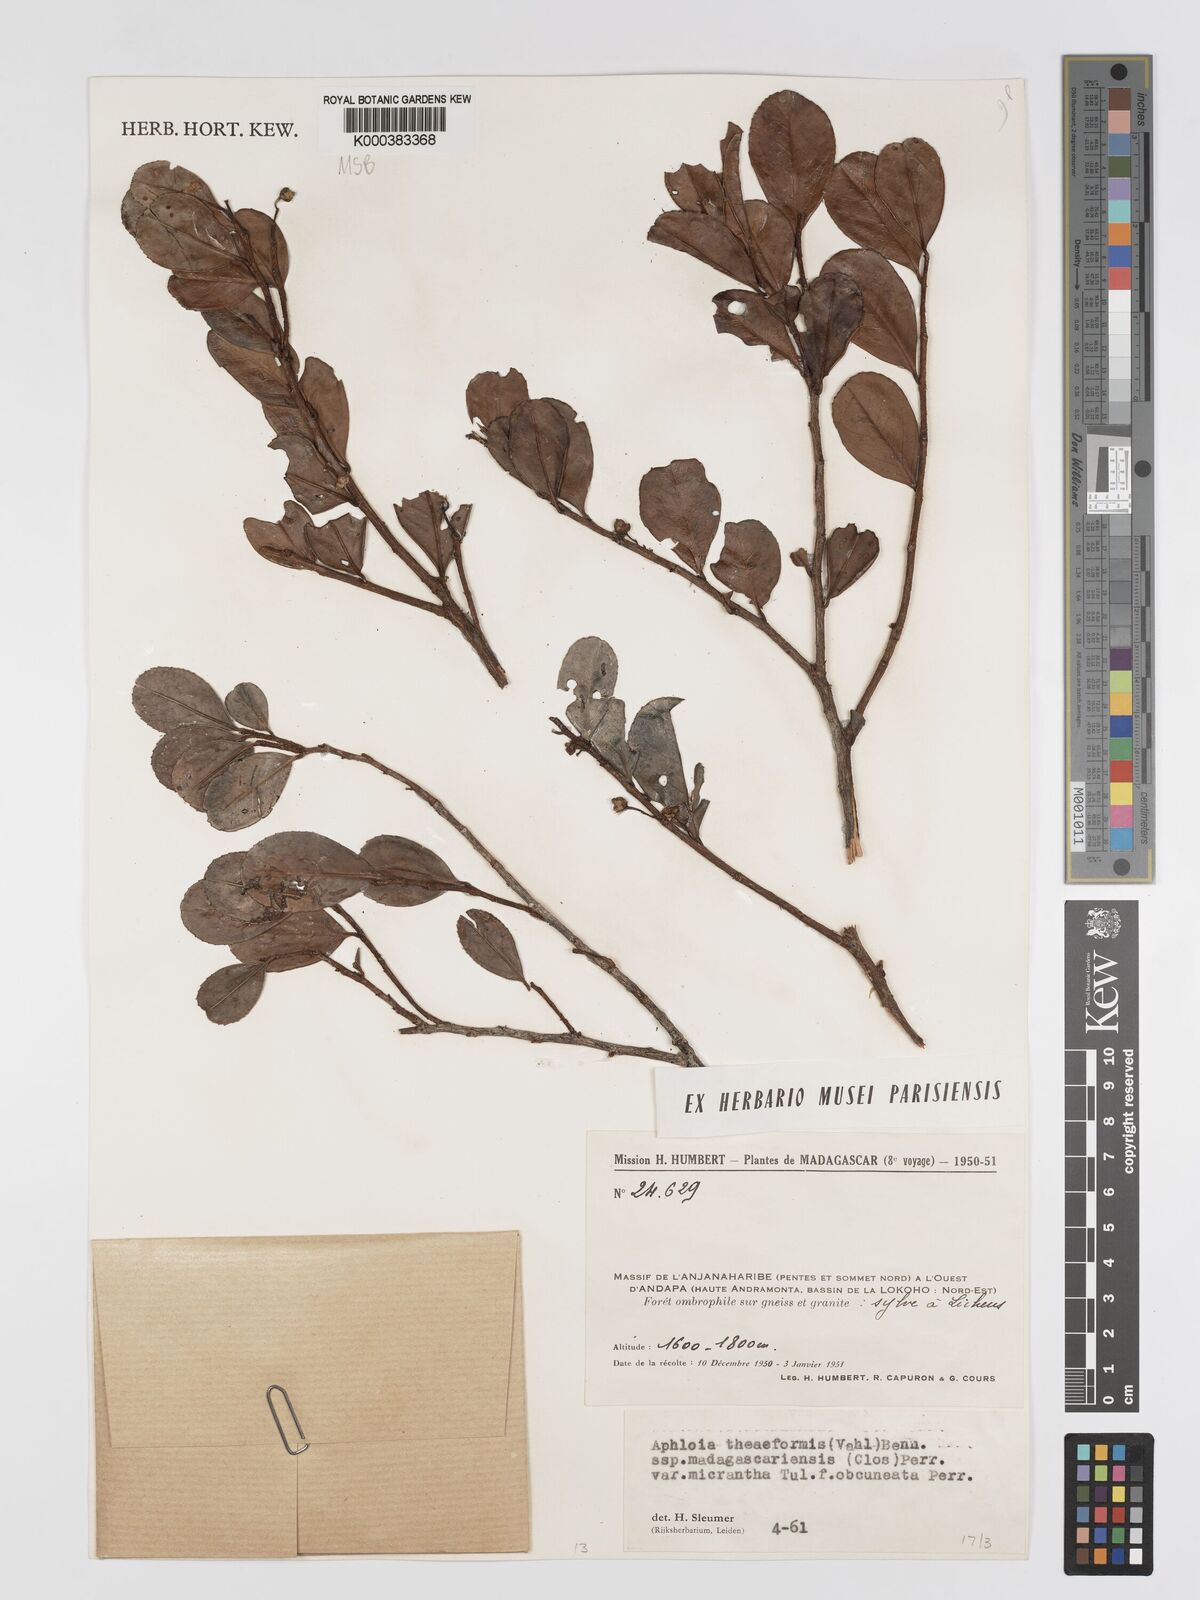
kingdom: Plantae
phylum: Tracheophyta
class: Magnoliopsida
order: Crossosomatales
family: Aphloiaceae
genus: Aphloia
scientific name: Aphloia theiformis
